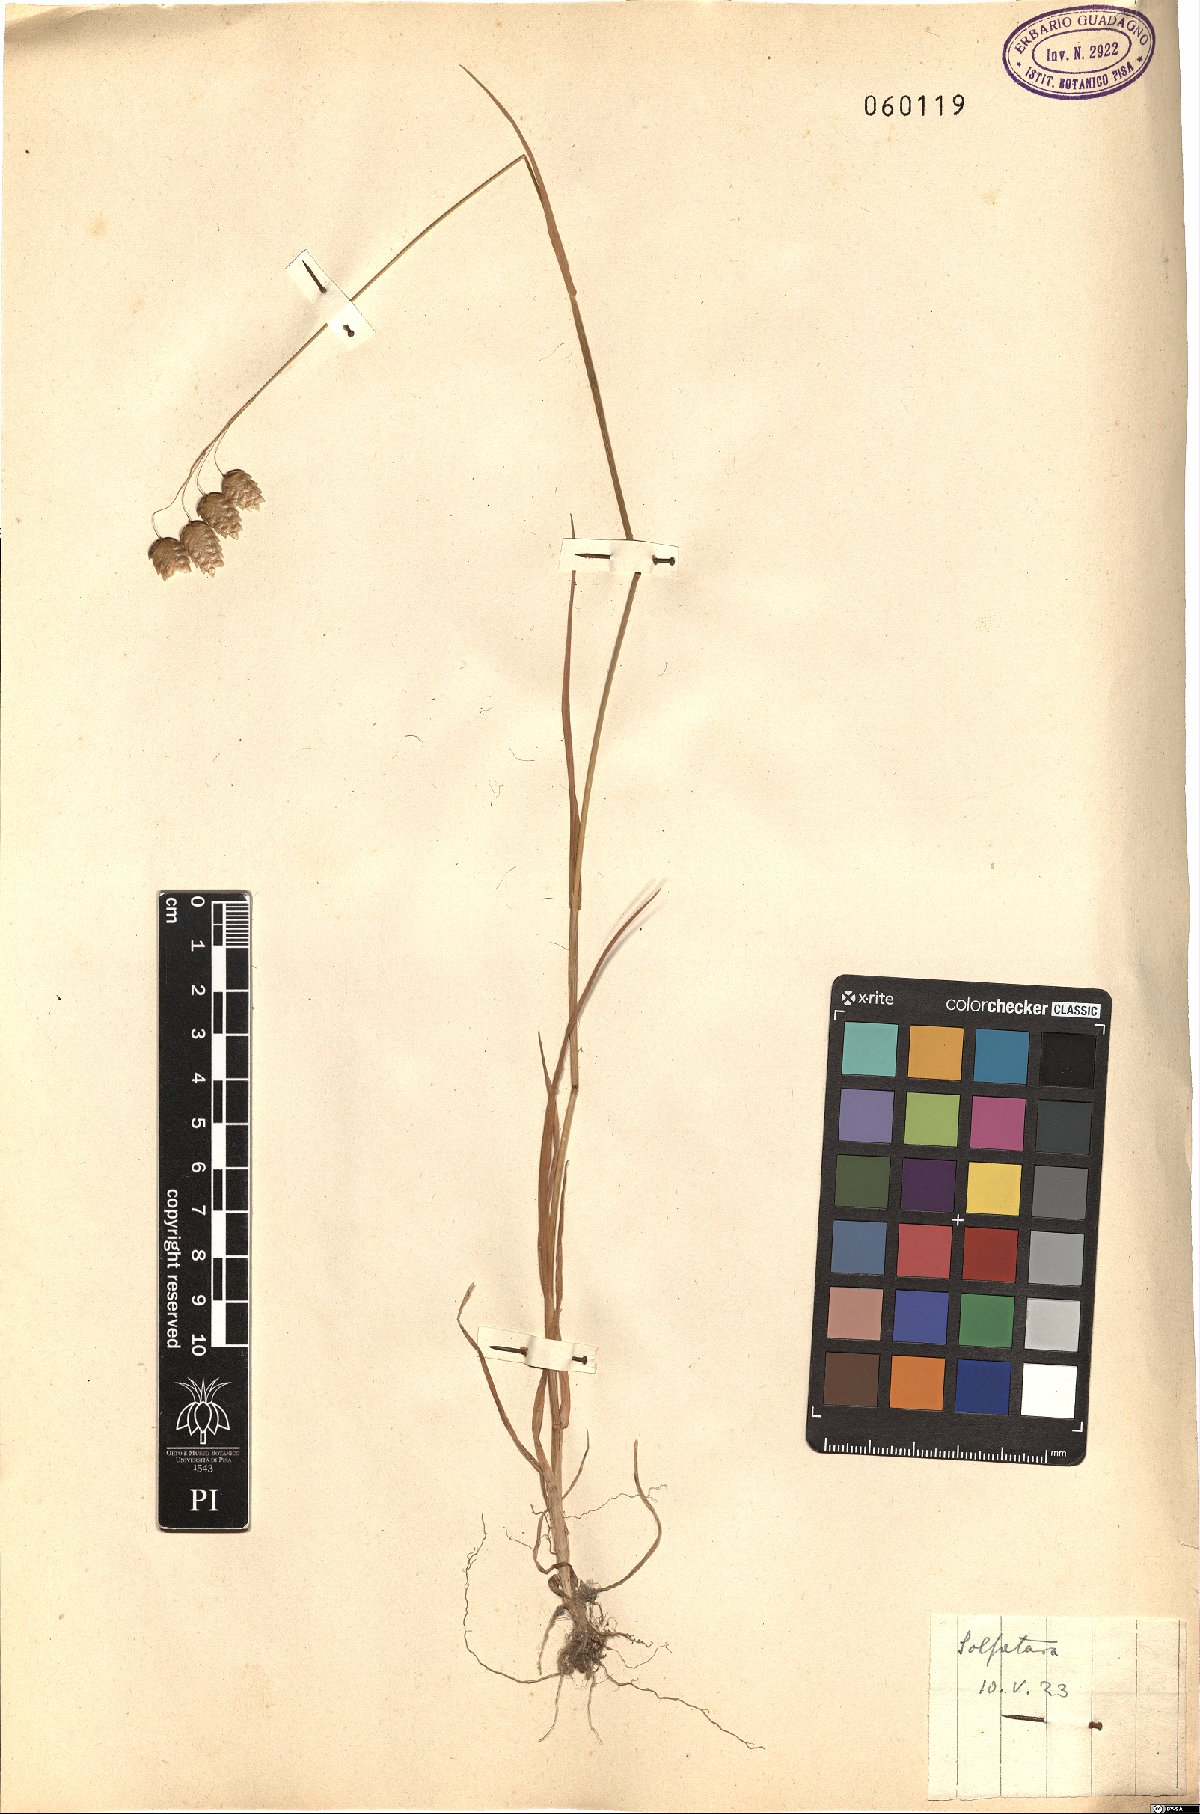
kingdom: Plantae
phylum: Tracheophyta
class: Liliopsida
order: Poales
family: Poaceae
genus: Briza
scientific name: Briza maxima
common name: Big quakinggrass
